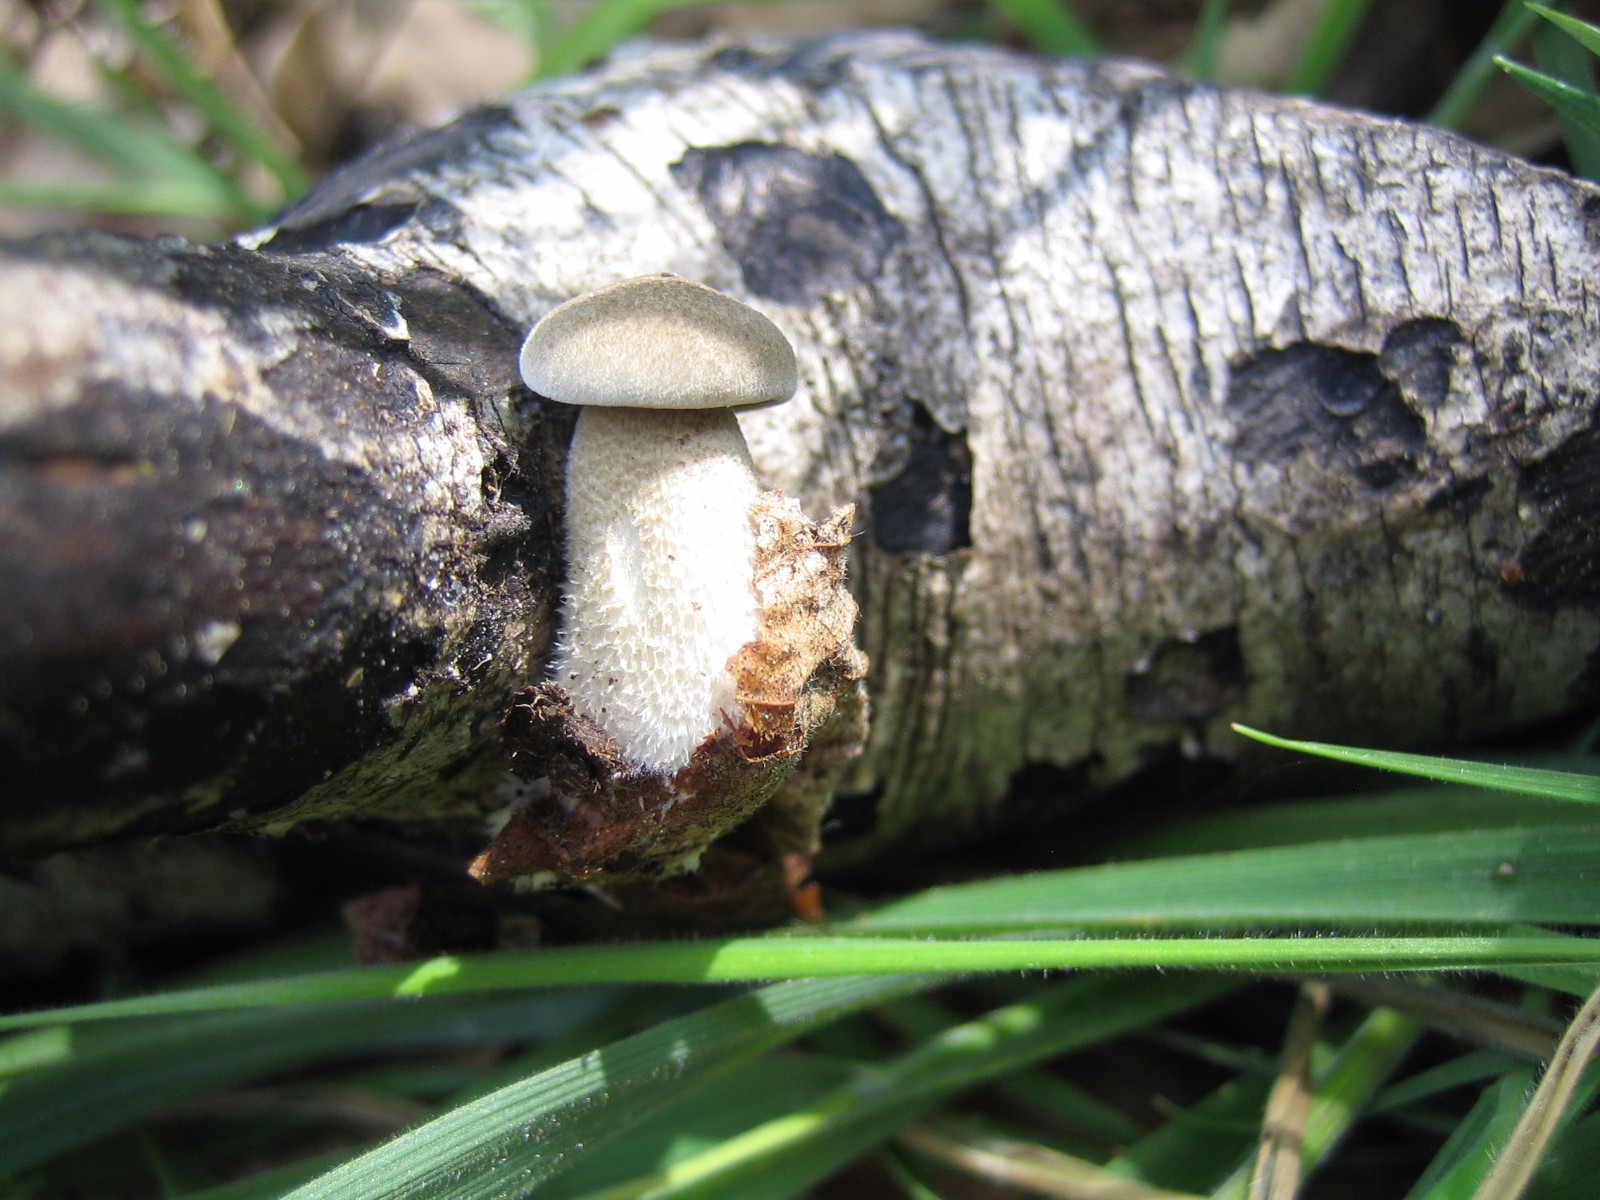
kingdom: Fungi
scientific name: Fungi
